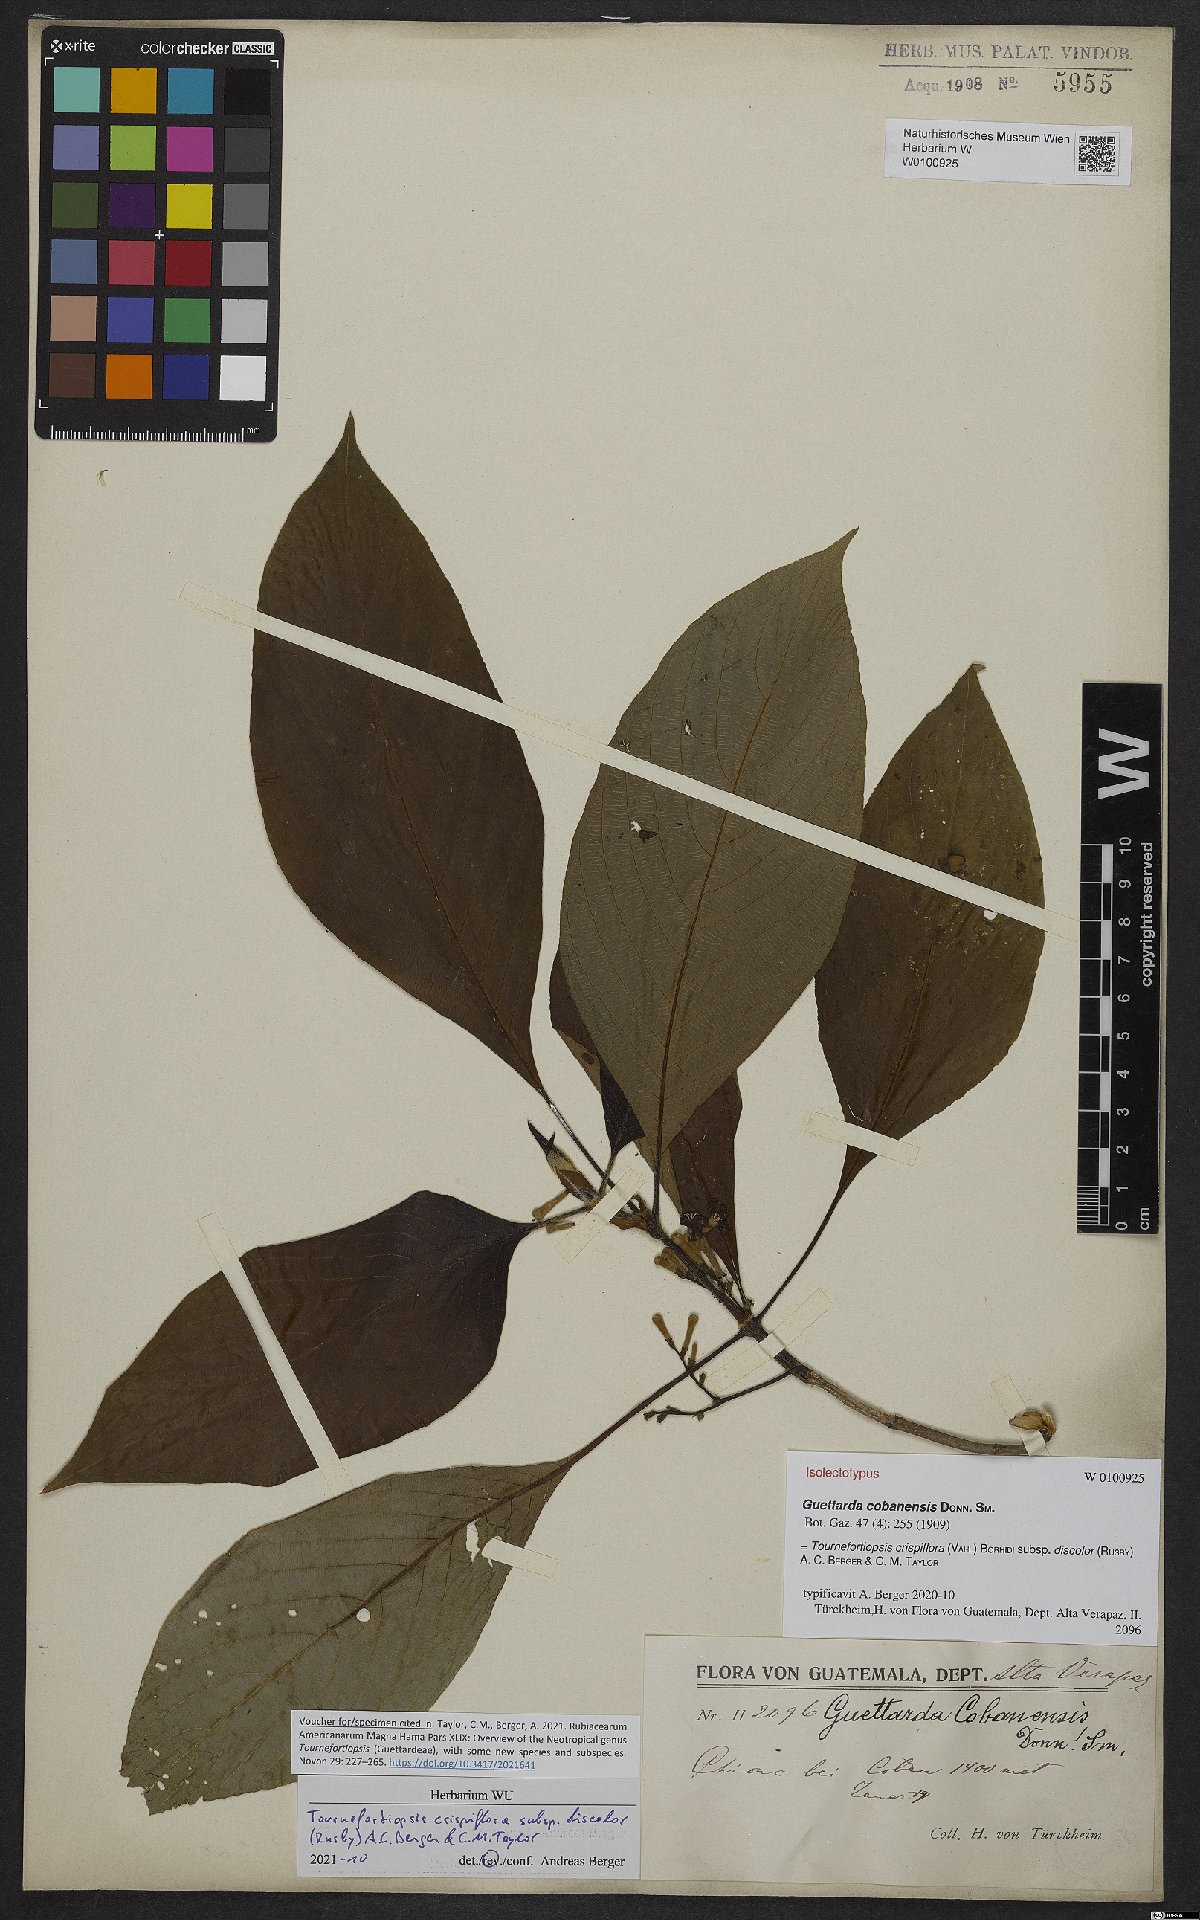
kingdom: Plantae
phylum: Tracheophyta
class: Magnoliopsida
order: Gentianales
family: Rubiaceae
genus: Tournefortiopsis
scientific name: Tournefortiopsis crispiflora
